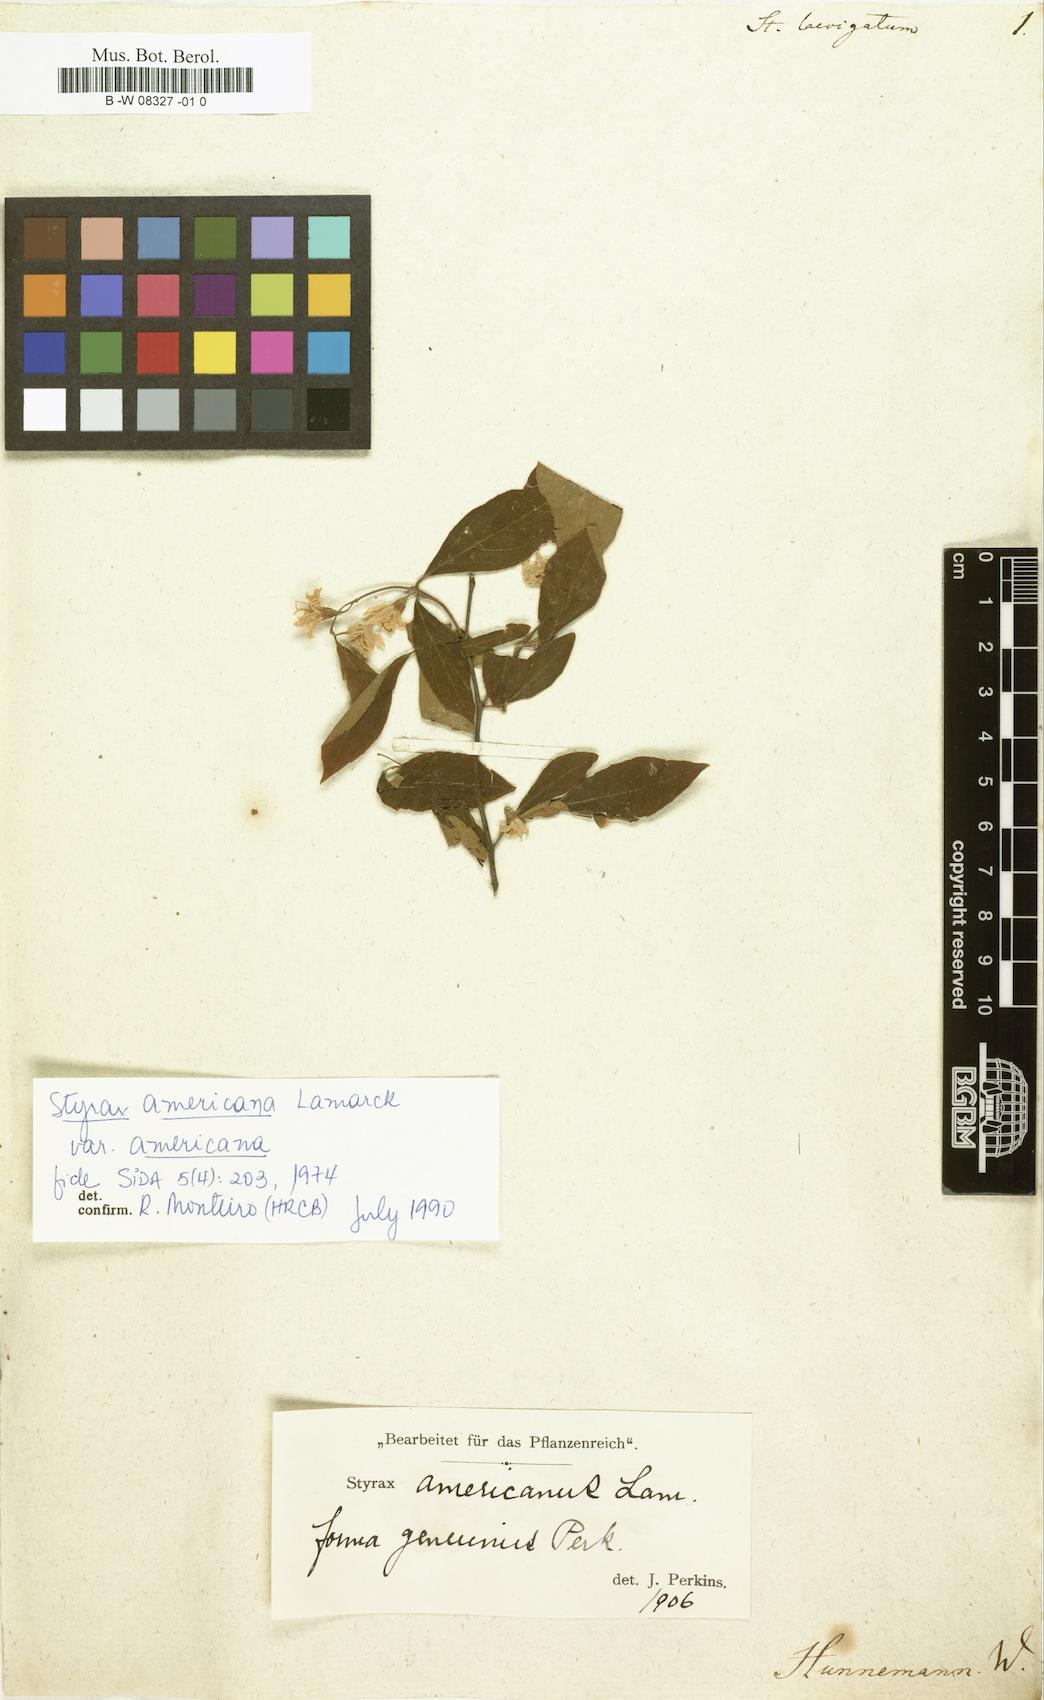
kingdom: Plantae
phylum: Tracheophyta
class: Magnoliopsida
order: Ericales
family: Styracaceae
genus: Styrax
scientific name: Styrax americanus
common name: American snowbell
